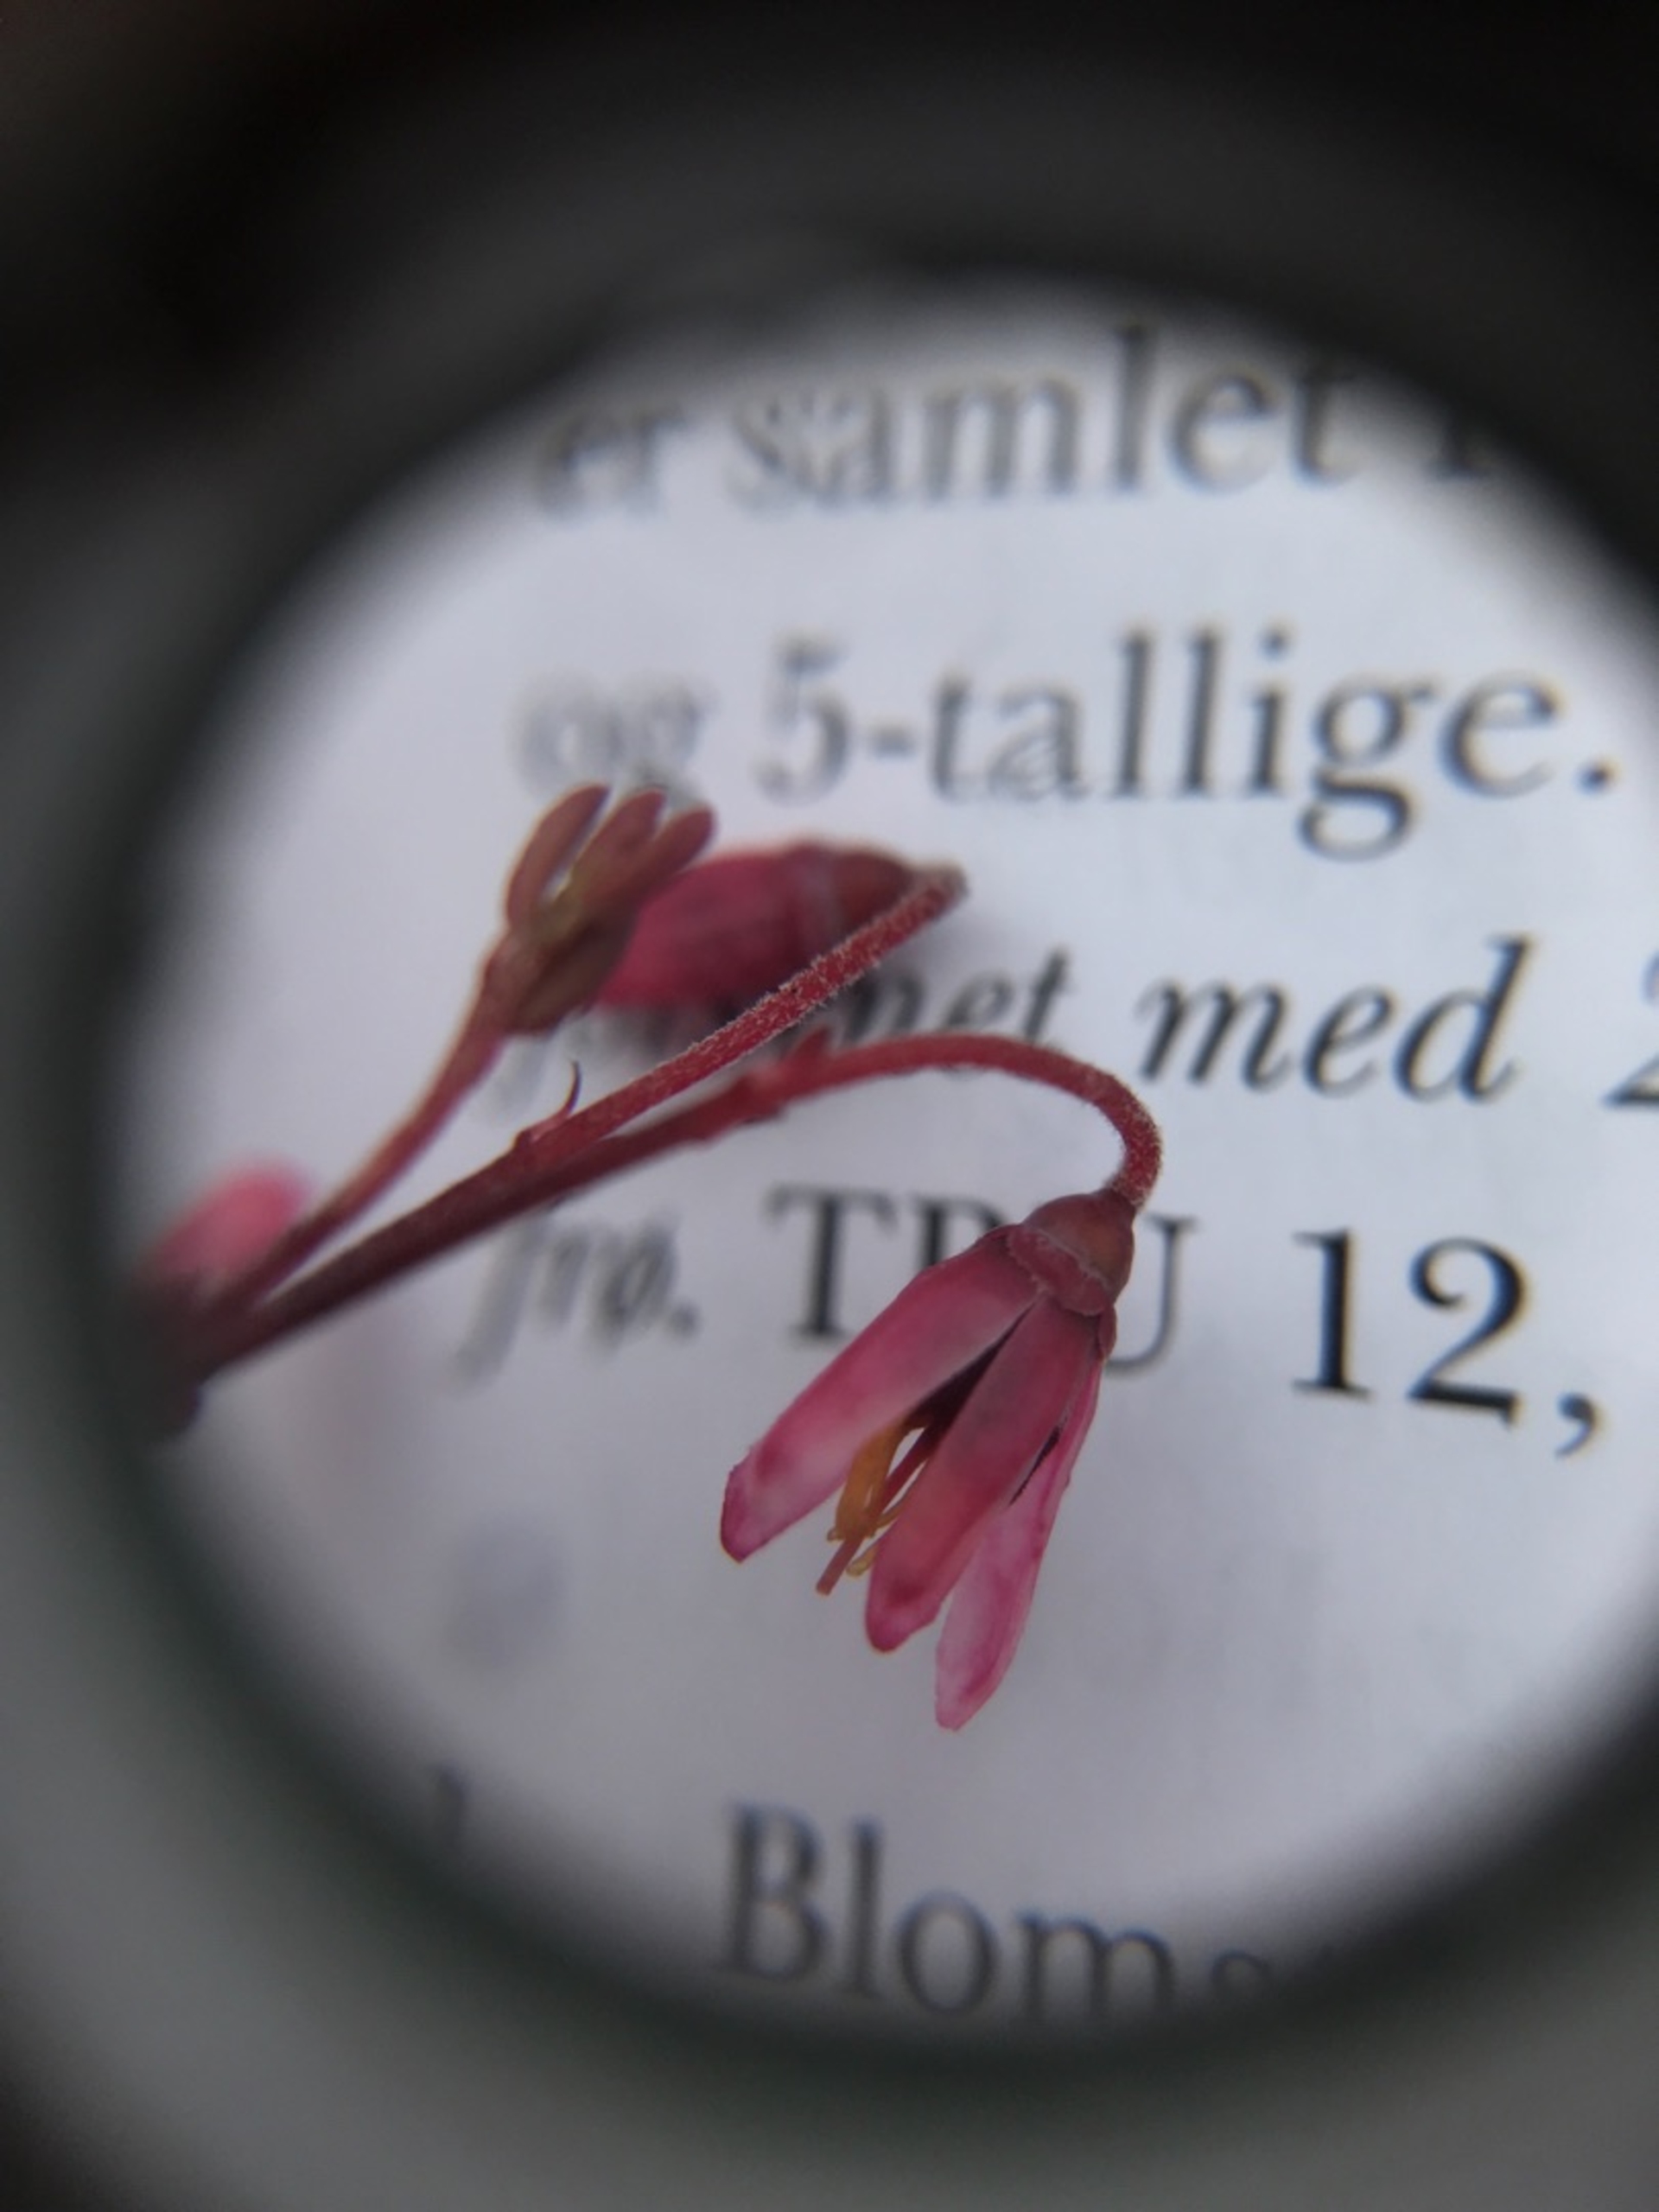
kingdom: Plantae
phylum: Tracheophyta
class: Magnoliopsida
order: Ericales
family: Ericaceae
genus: Vaccinium
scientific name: Vaccinium oxycoccos
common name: Tranebær
